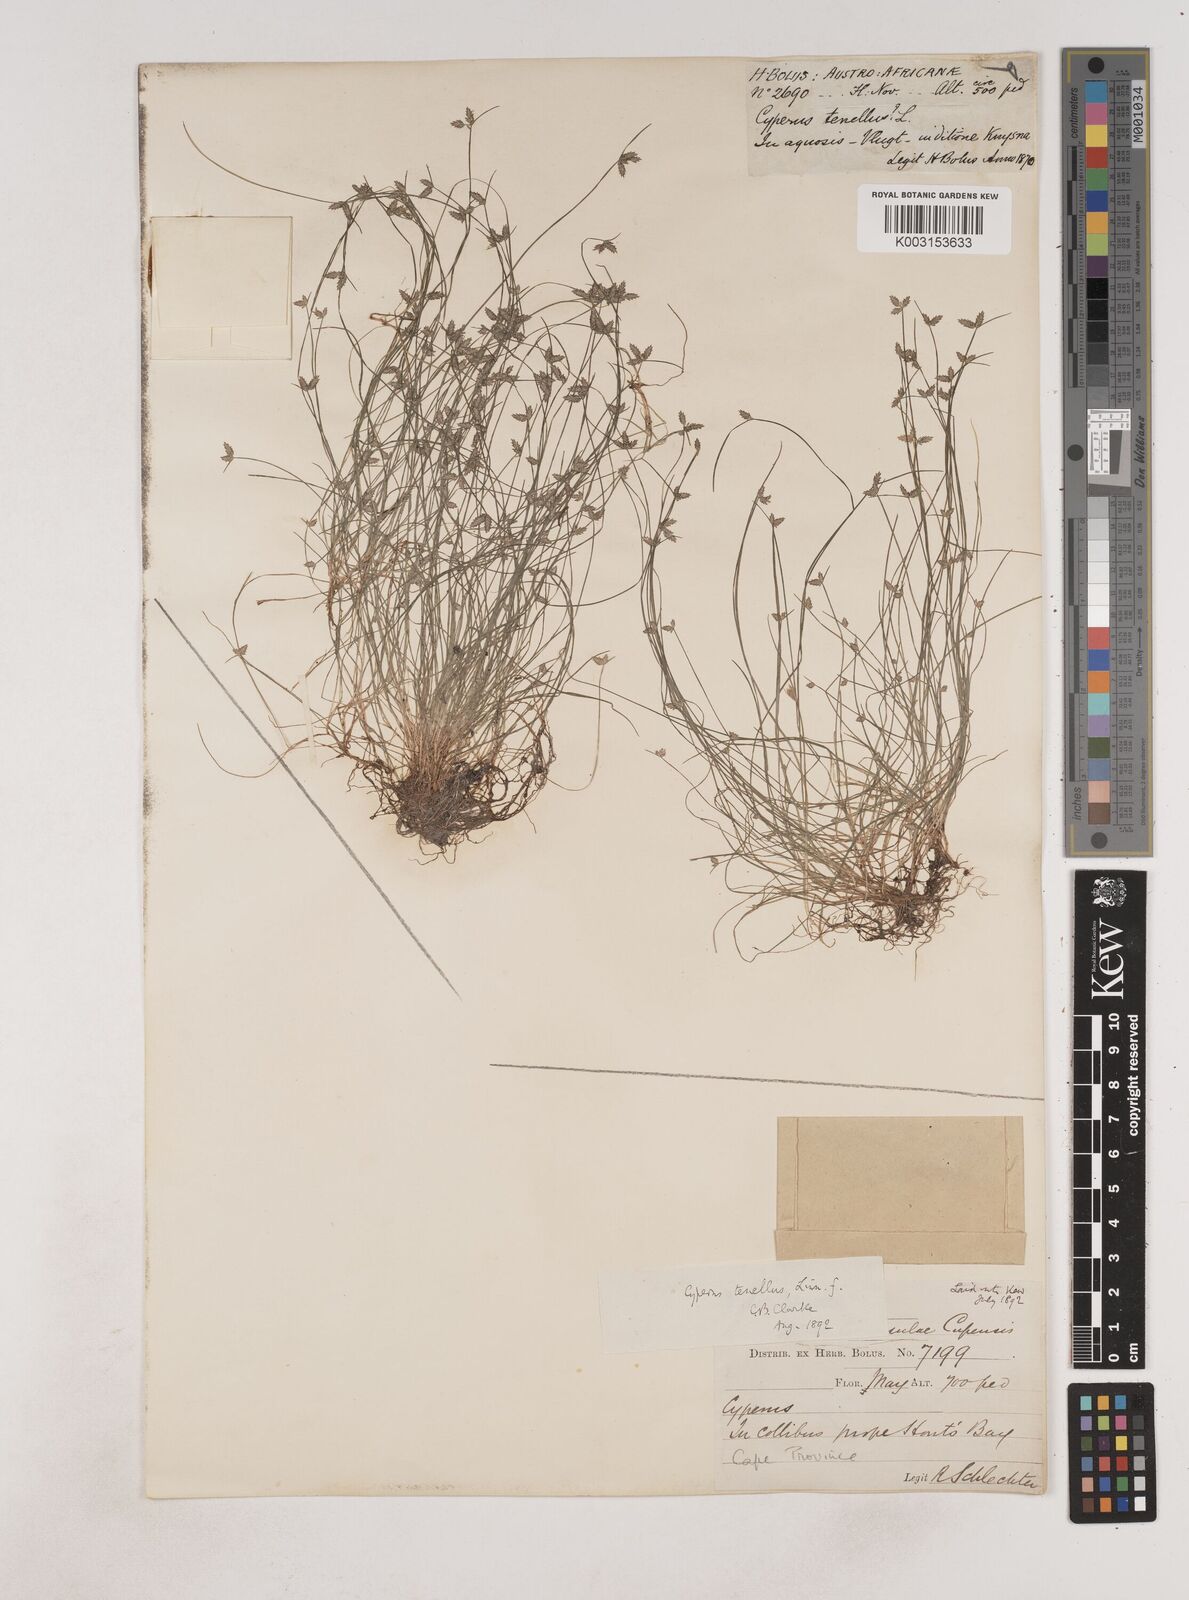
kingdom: Plantae
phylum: Tracheophyta
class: Liliopsida
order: Poales
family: Cyperaceae
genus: Isolepis
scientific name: Isolepis levynsiana
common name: Sedge
